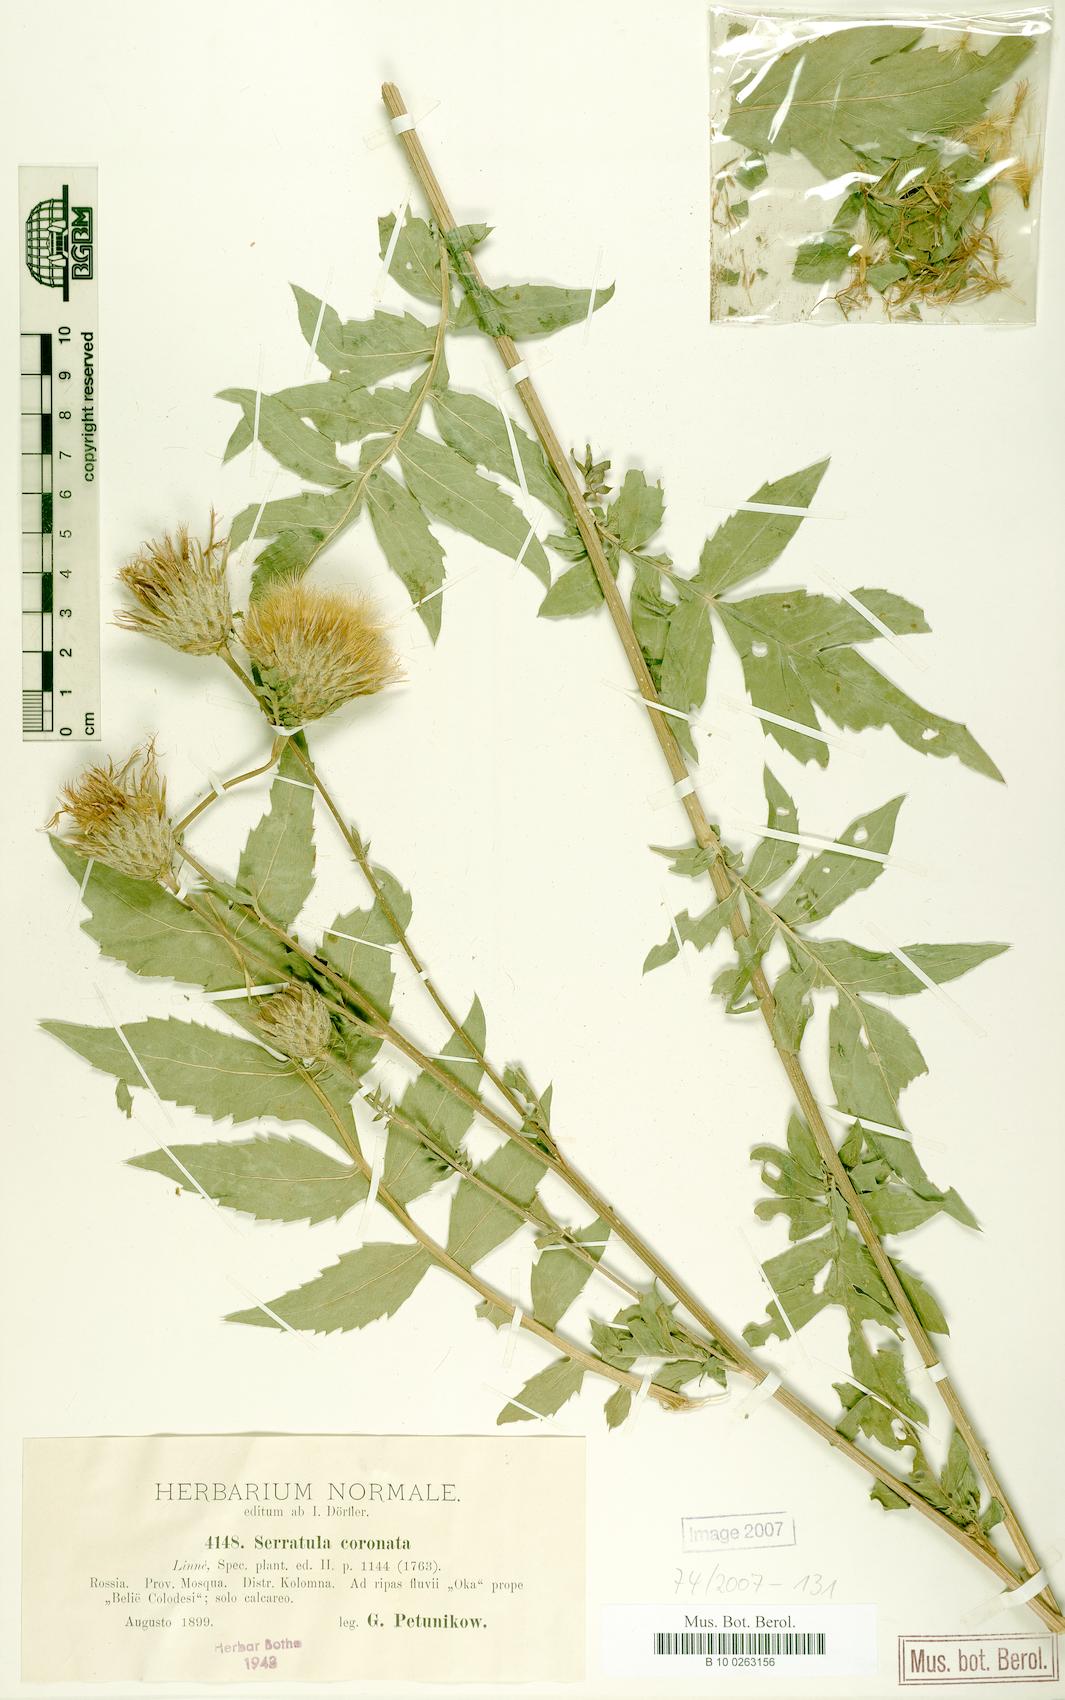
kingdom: Plantae
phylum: Tracheophyta
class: Magnoliopsida
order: Asterales
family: Asteraceae
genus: Serratula
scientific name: Serratula coronata
